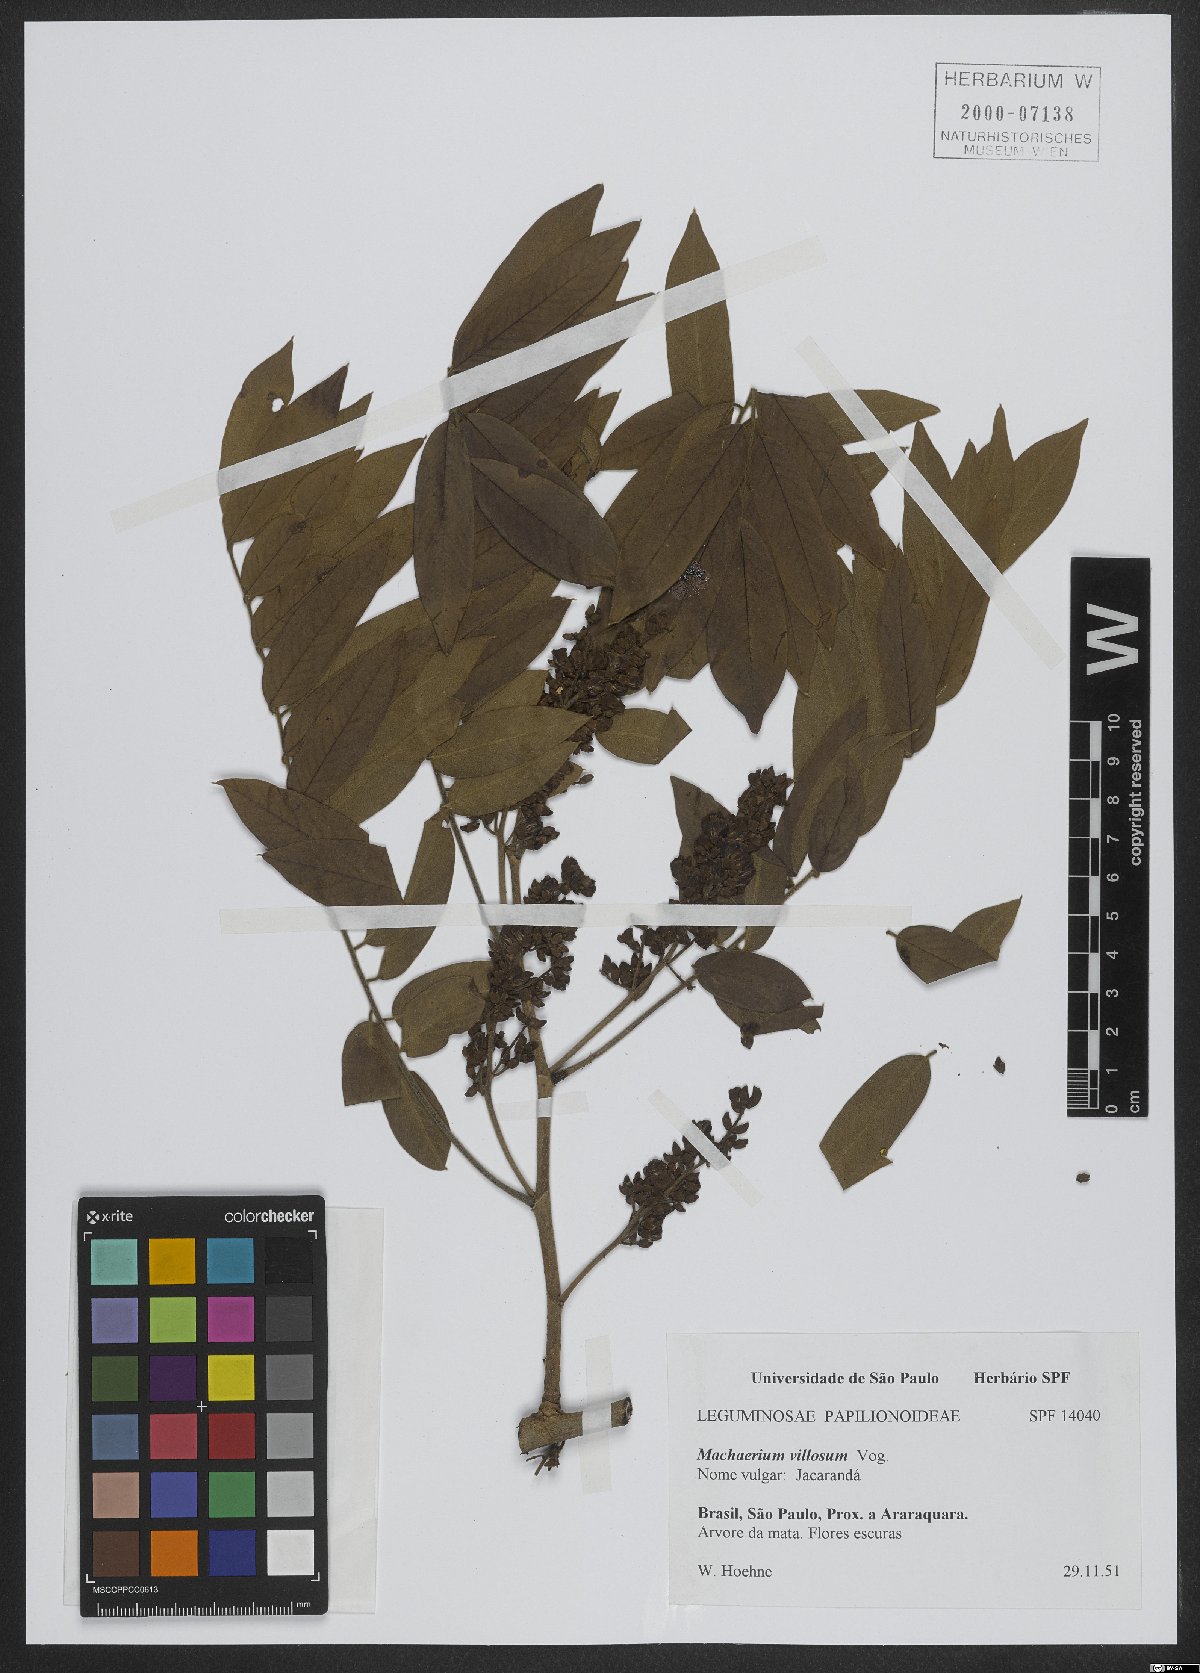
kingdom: Plantae
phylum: Tracheophyta
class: Magnoliopsida
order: Fabales
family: Fabaceae
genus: Machaerium
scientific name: Machaerium villosum
